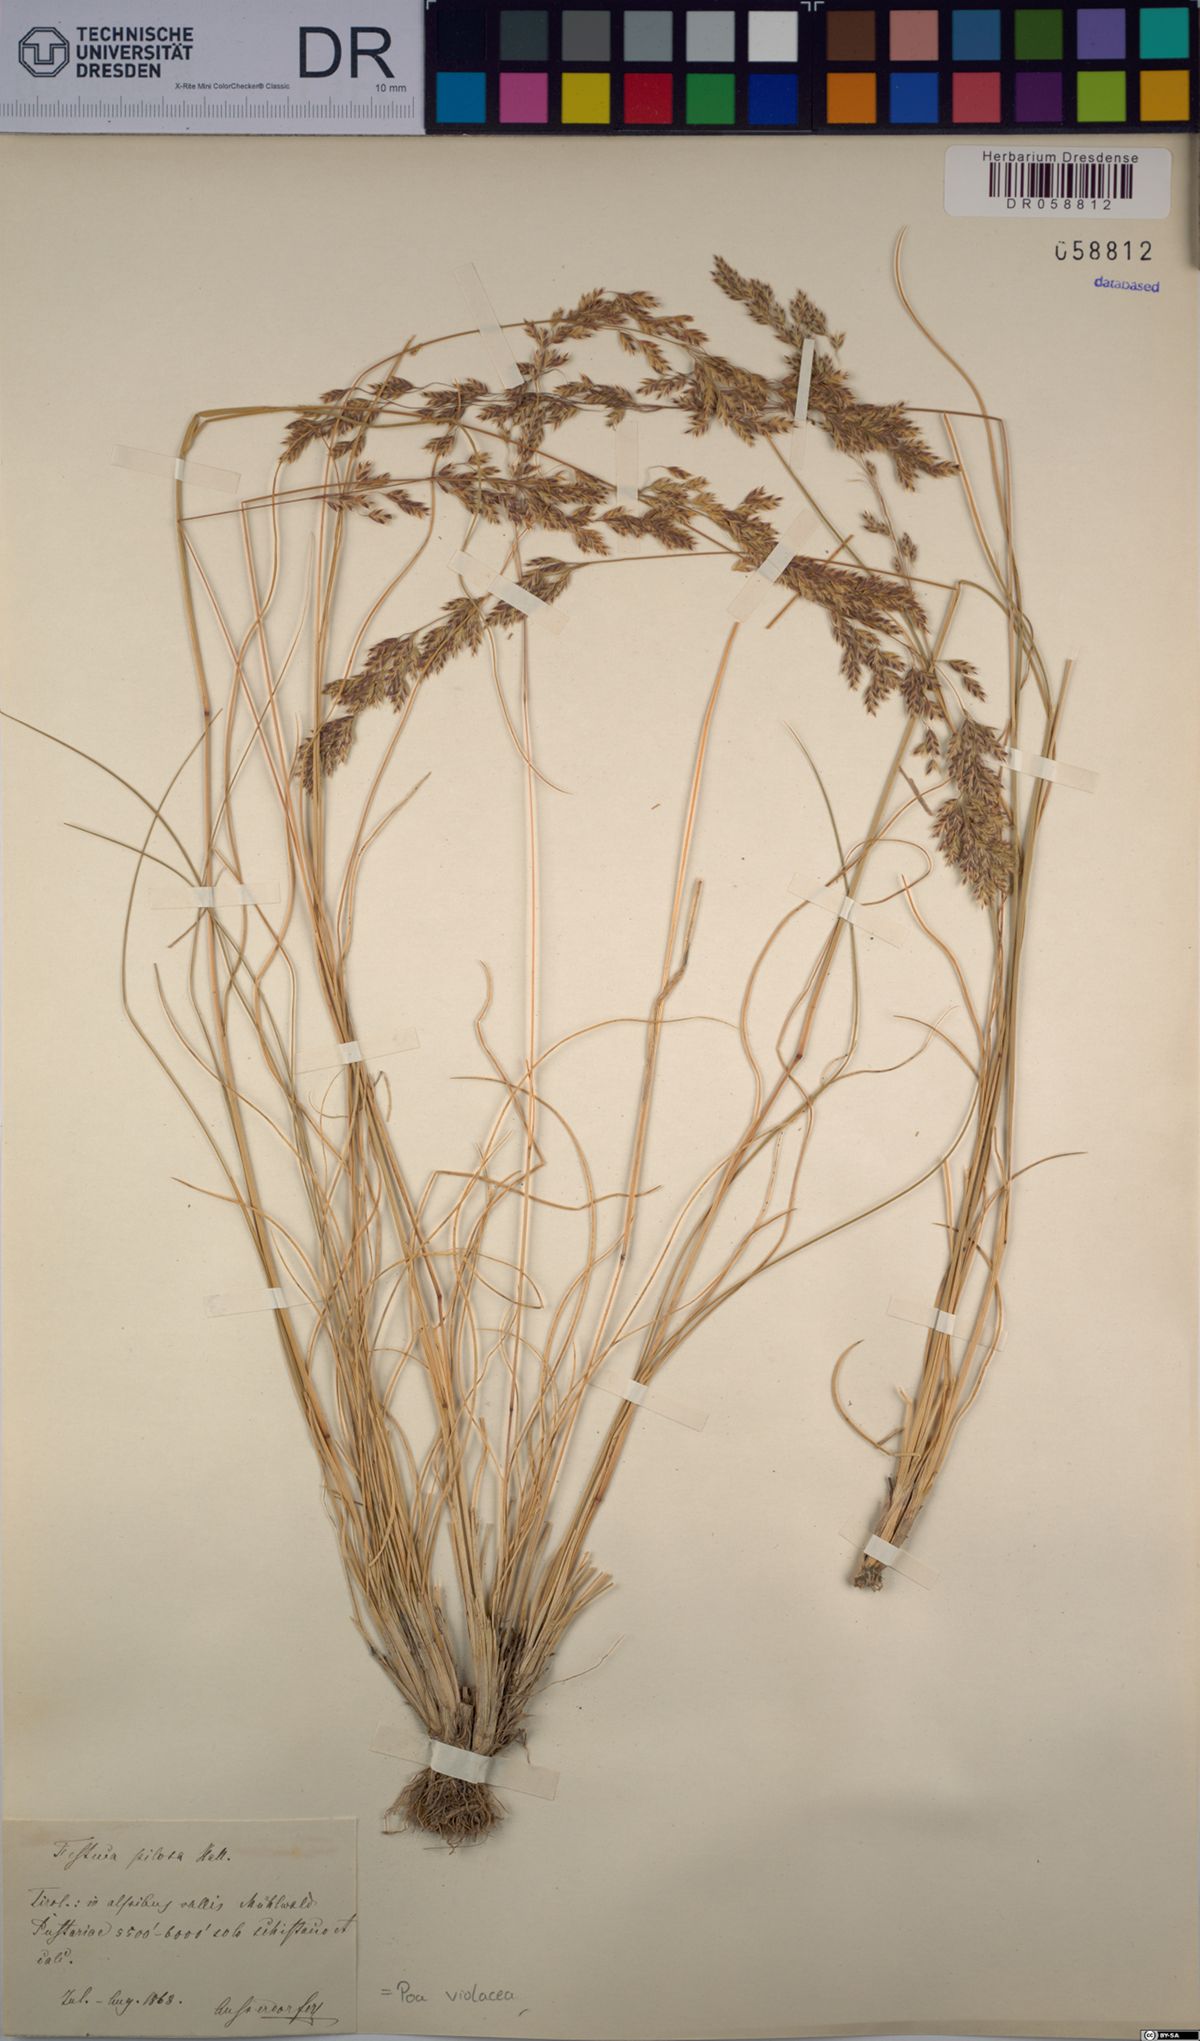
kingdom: Plantae
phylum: Tracheophyta
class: Liliopsida
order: Poales
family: Poaceae
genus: Bellardiochloa
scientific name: Bellardiochloa variegata
